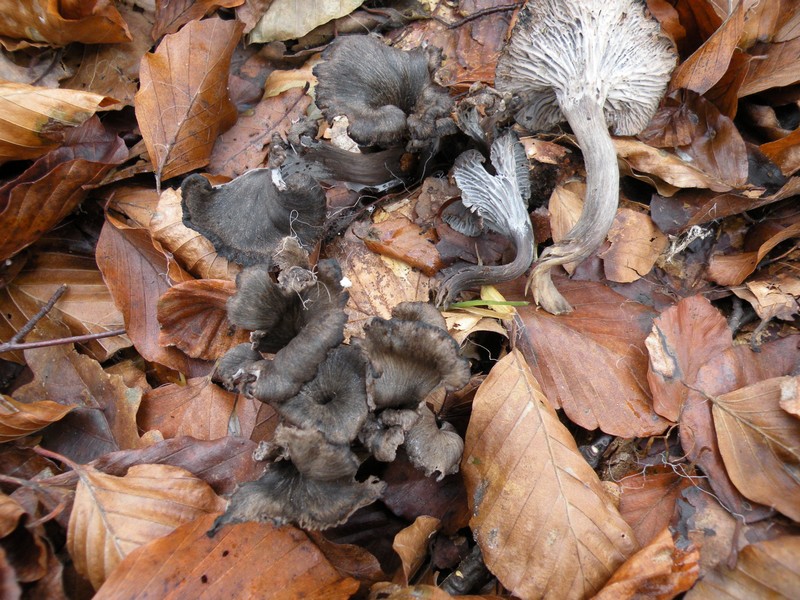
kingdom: Fungi
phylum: Basidiomycota
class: Agaricomycetes
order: Cantharellales
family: Hydnaceae
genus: Cantharellus
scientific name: Cantharellus cinereus
